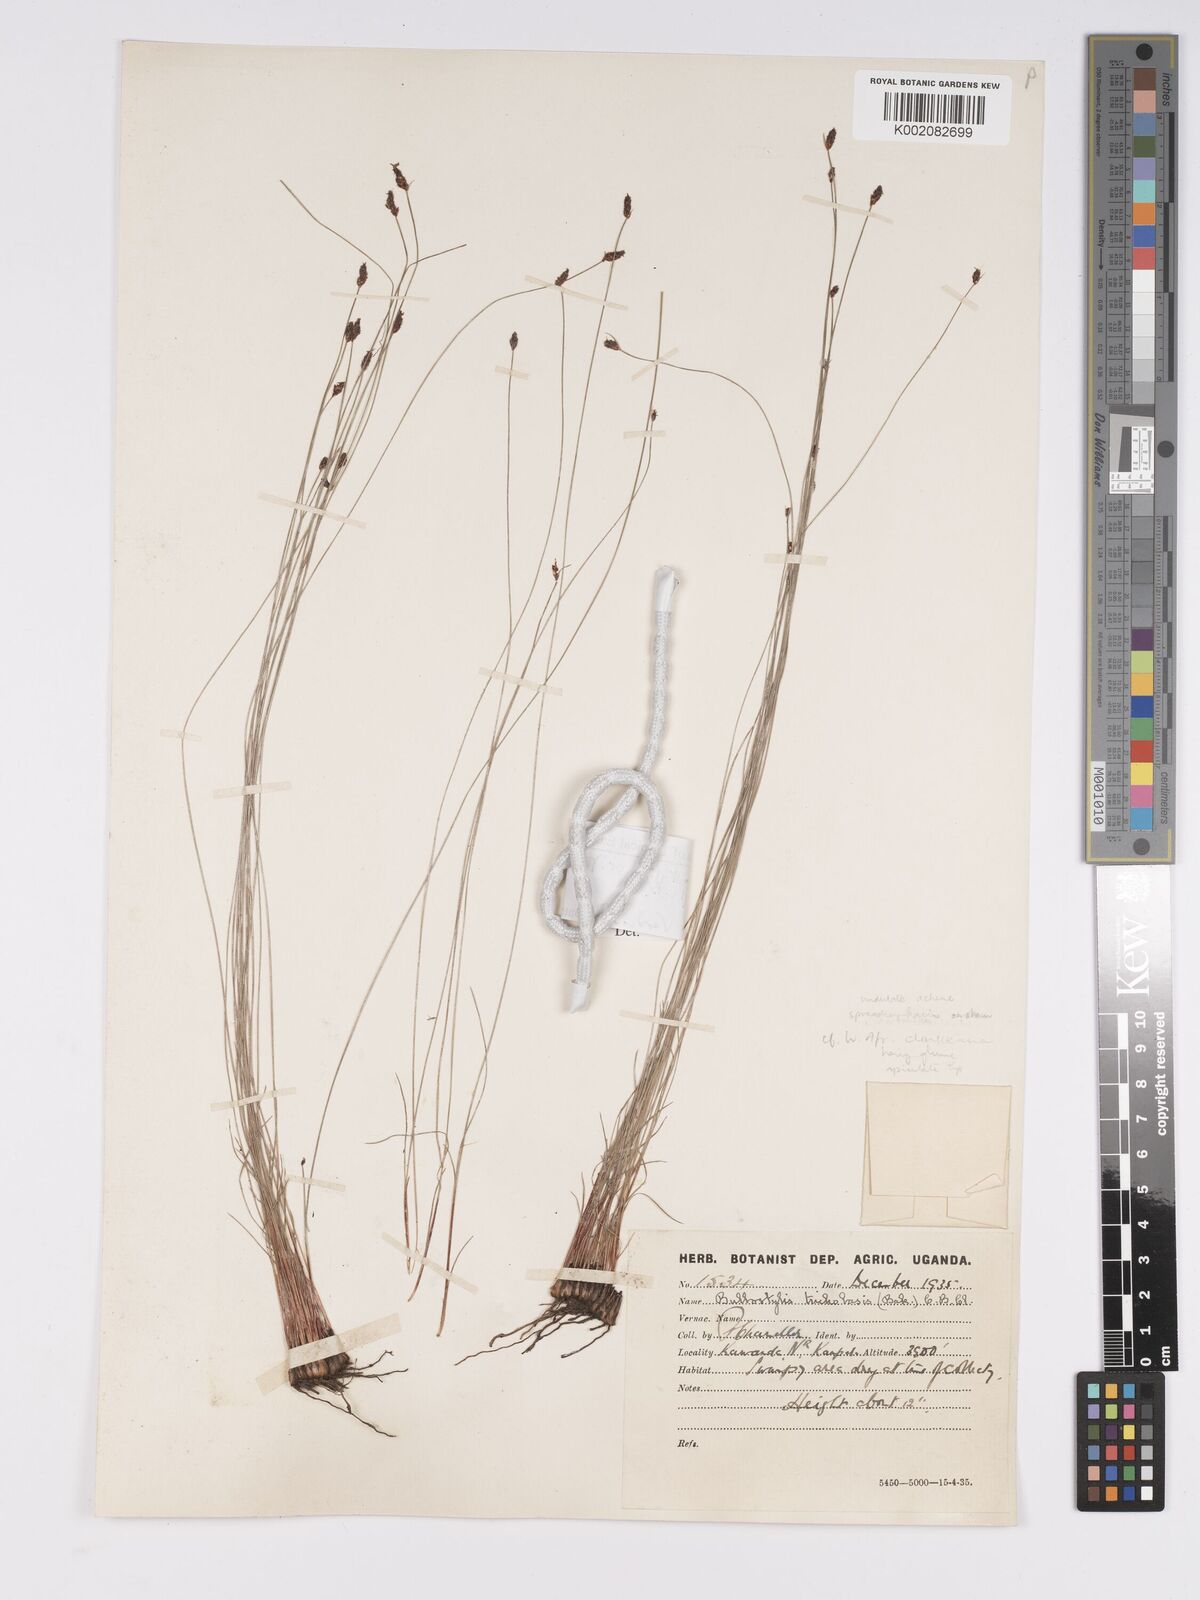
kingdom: Plantae
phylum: Tracheophyta
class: Liliopsida
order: Poales
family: Cyperaceae
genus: Bulbostylis
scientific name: Bulbostylis oritrephes
